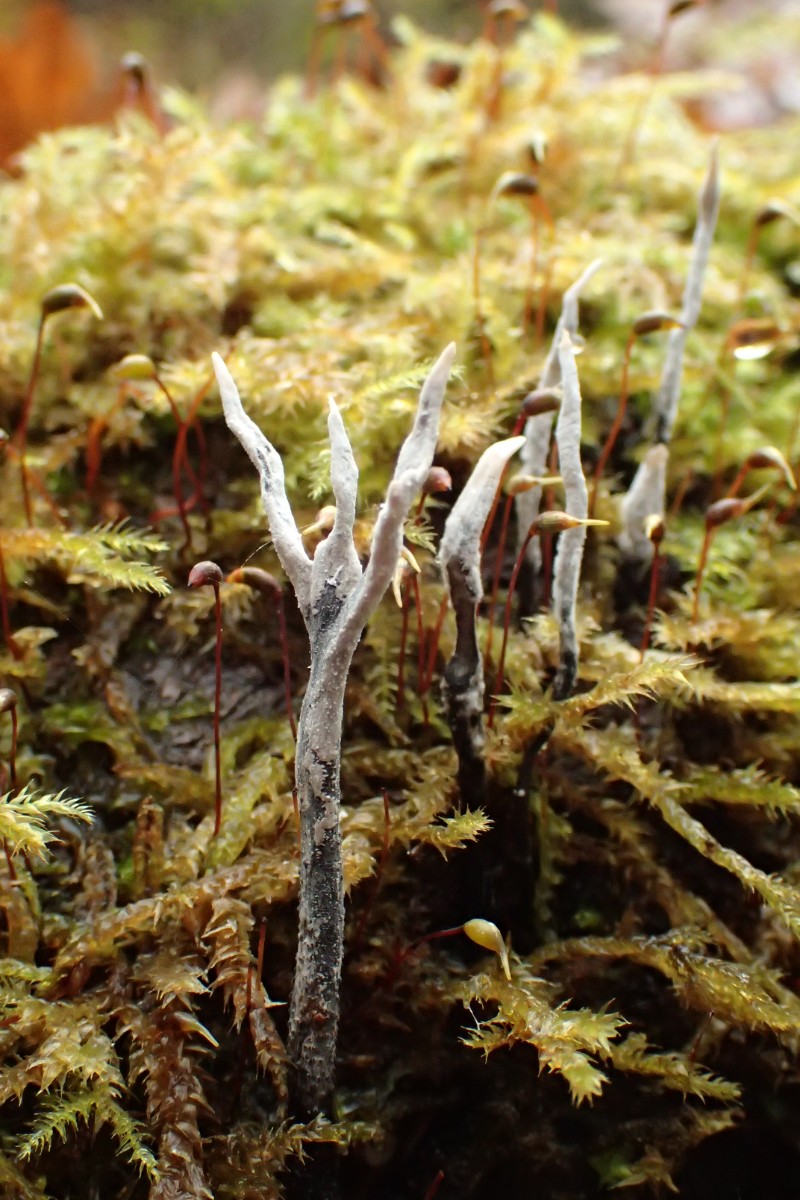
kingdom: Fungi
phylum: Ascomycota
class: Sordariomycetes
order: Xylariales
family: Xylariaceae
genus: Xylaria
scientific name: Xylaria hypoxylon
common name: grenet stødsvamp
